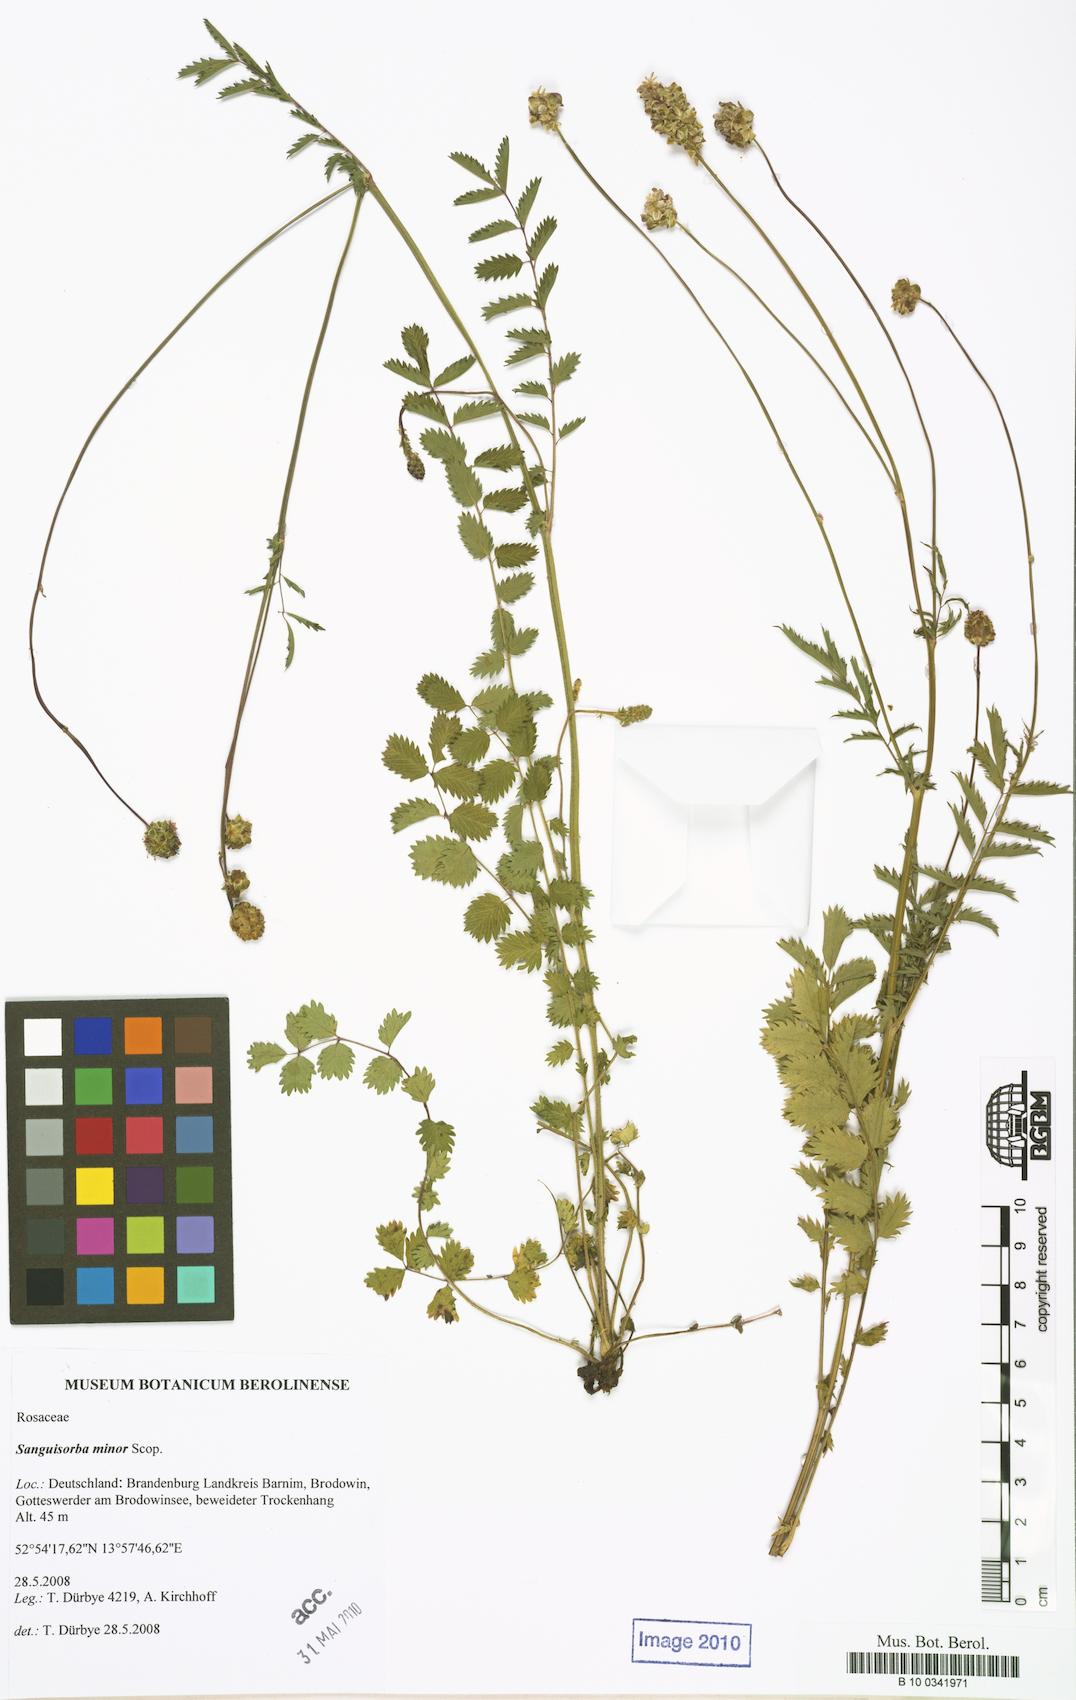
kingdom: Plantae
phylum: Tracheophyta
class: Magnoliopsida
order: Rosales
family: Rosaceae
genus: Poterium
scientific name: Poterium sanguisorba
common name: Salad burnet
